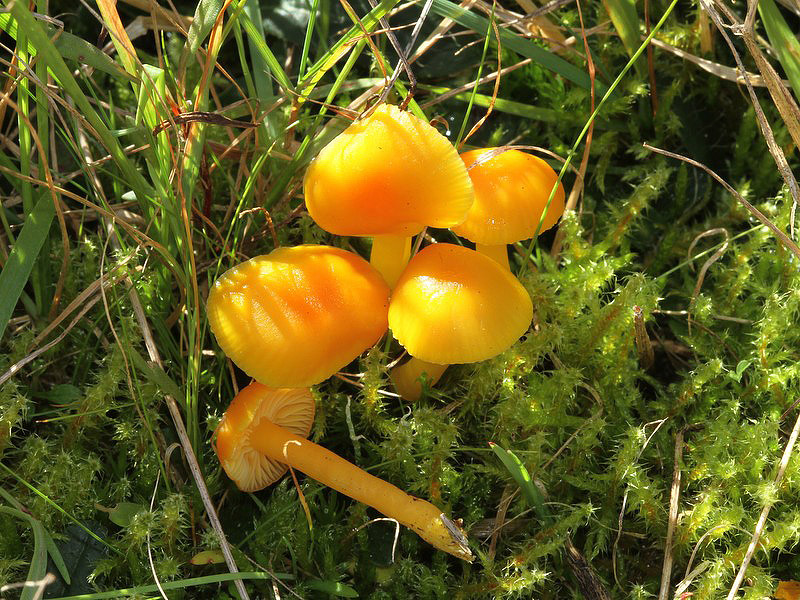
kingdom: Fungi
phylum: Basidiomycota
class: Agaricomycetes
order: Agaricales
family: Hygrophoraceae
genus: Hygrocybe
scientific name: Hygrocybe ceracea
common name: voksgul vokshat
